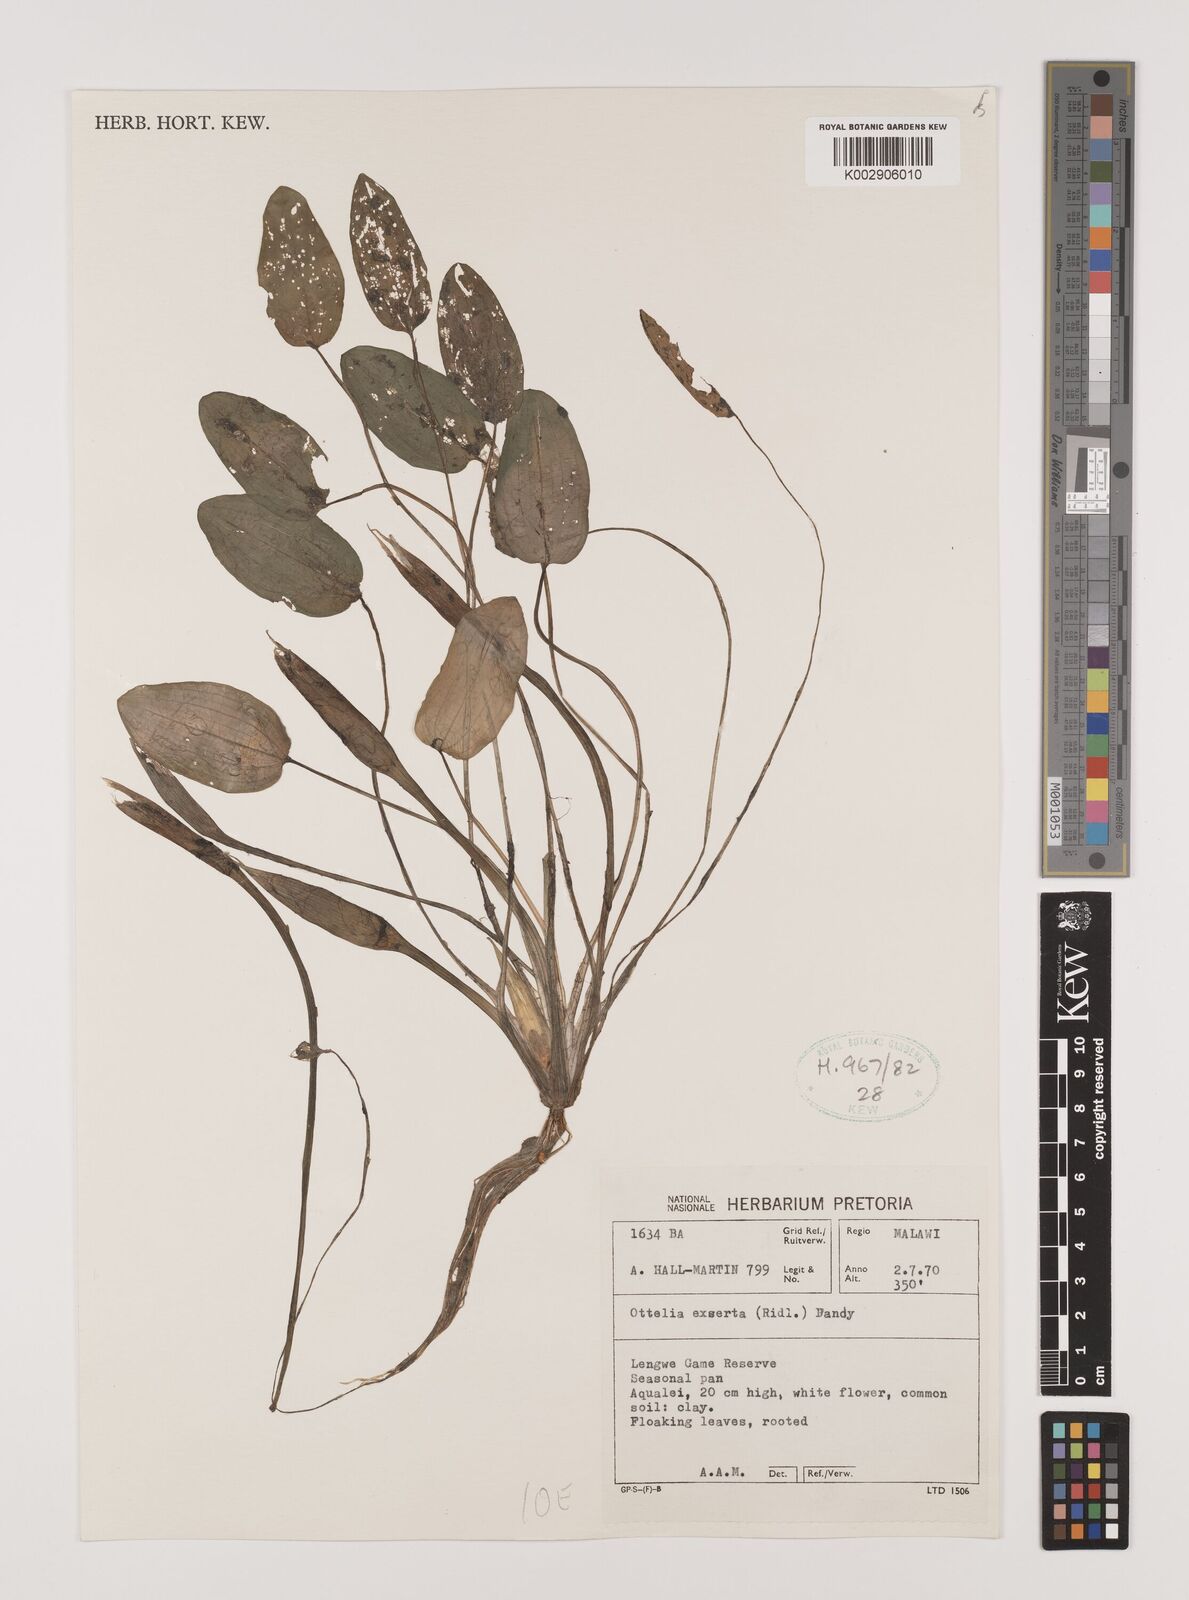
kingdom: Plantae
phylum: Tracheophyta
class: Liliopsida
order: Alismatales
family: Hydrocharitaceae
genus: Ottelia
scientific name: Ottelia exserta
